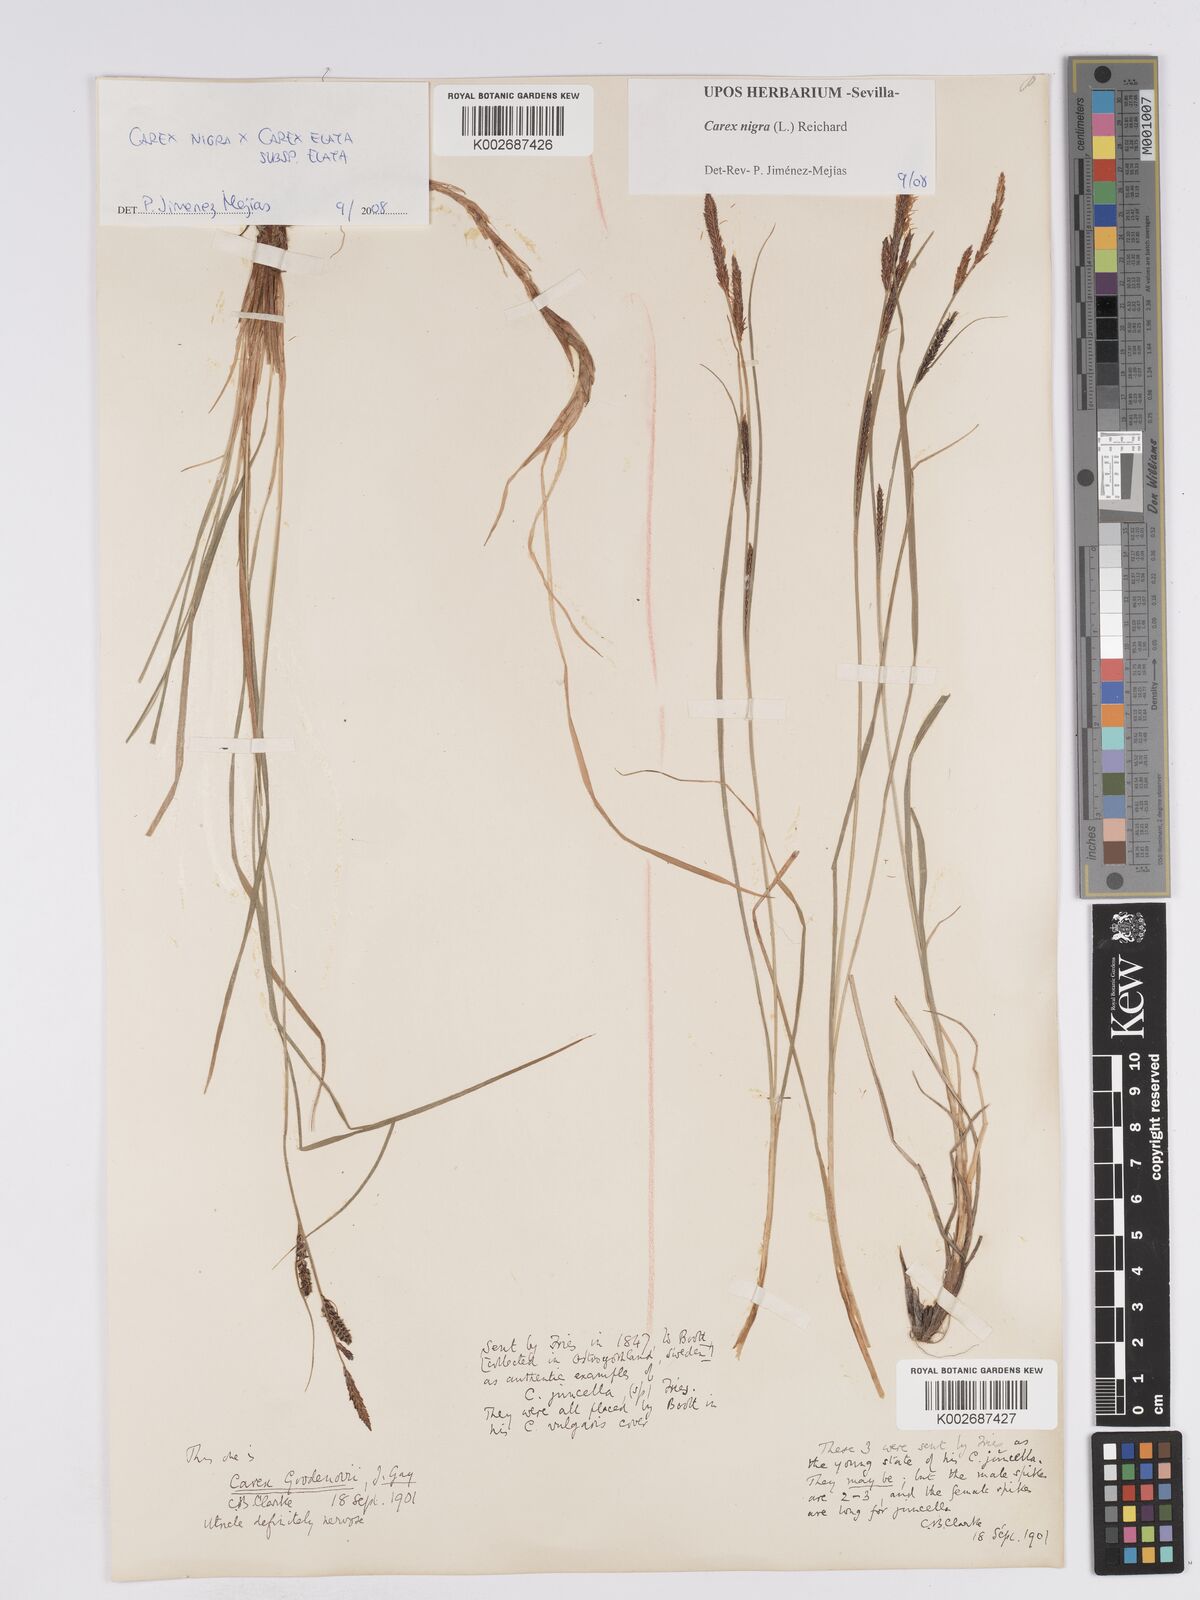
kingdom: Plantae
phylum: Tracheophyta
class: Liliopsida
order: Poales
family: Cyperaceae
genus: Carex
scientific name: Carex nigra
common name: Common sedge
